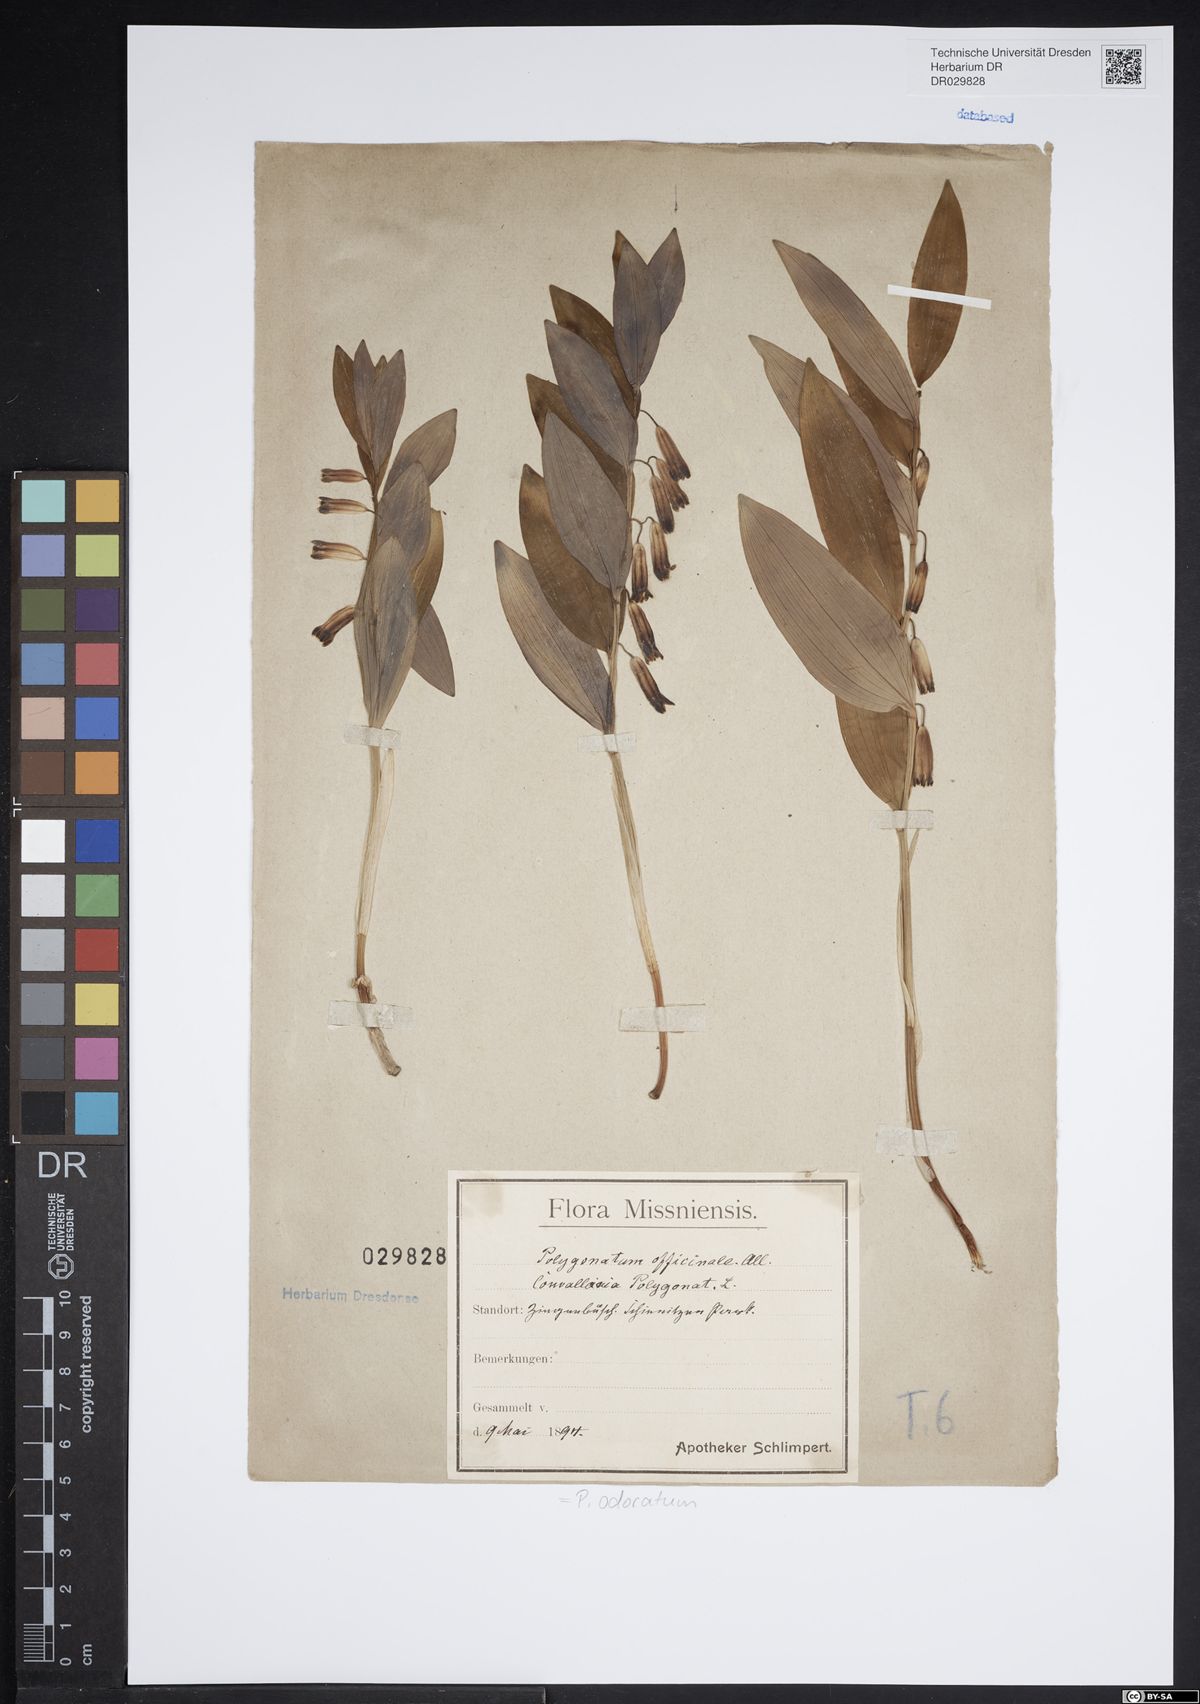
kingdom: Plantae
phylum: Tracheophyta
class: Liliopsida
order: Asparagales
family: Asparagaceae
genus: Polygonatum
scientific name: Polygonatum odoratum
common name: Angular solomon's-seal
